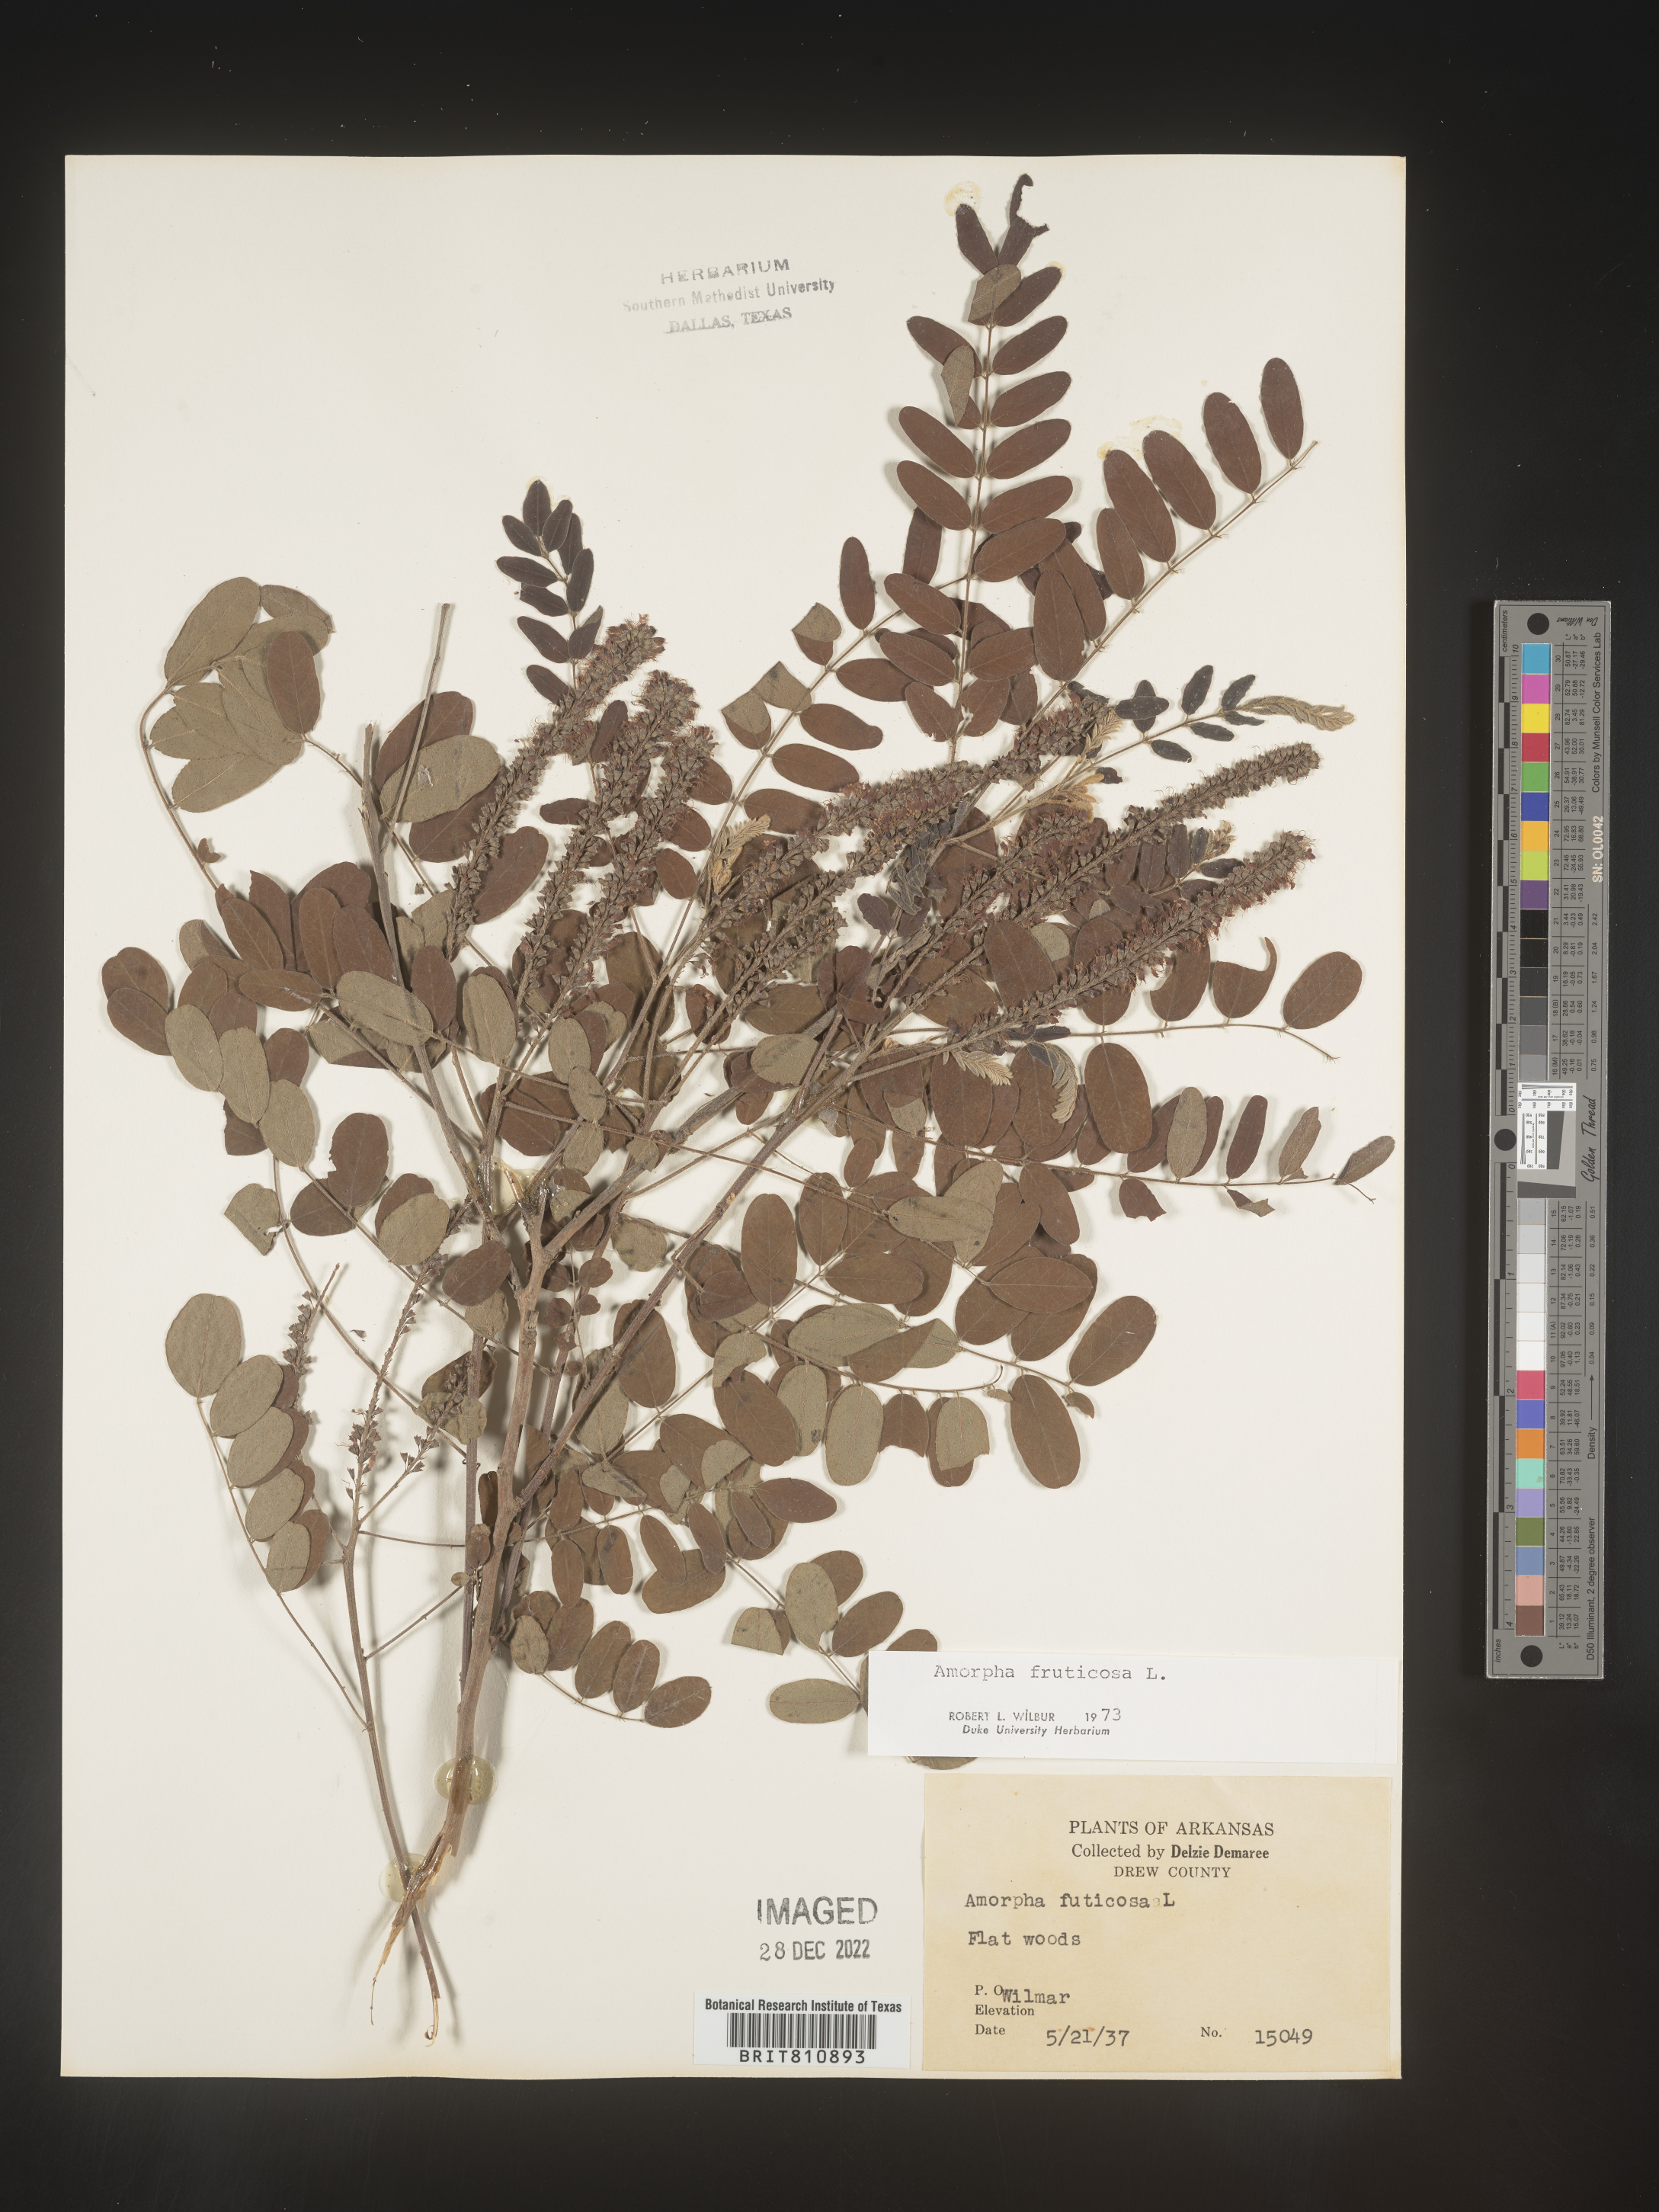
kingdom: Plantae
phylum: Tracheophyta
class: Magnoliopsida
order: Fabales
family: Fabaceae
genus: Amorpha
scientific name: Amorpha fruticosa
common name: False indigo
